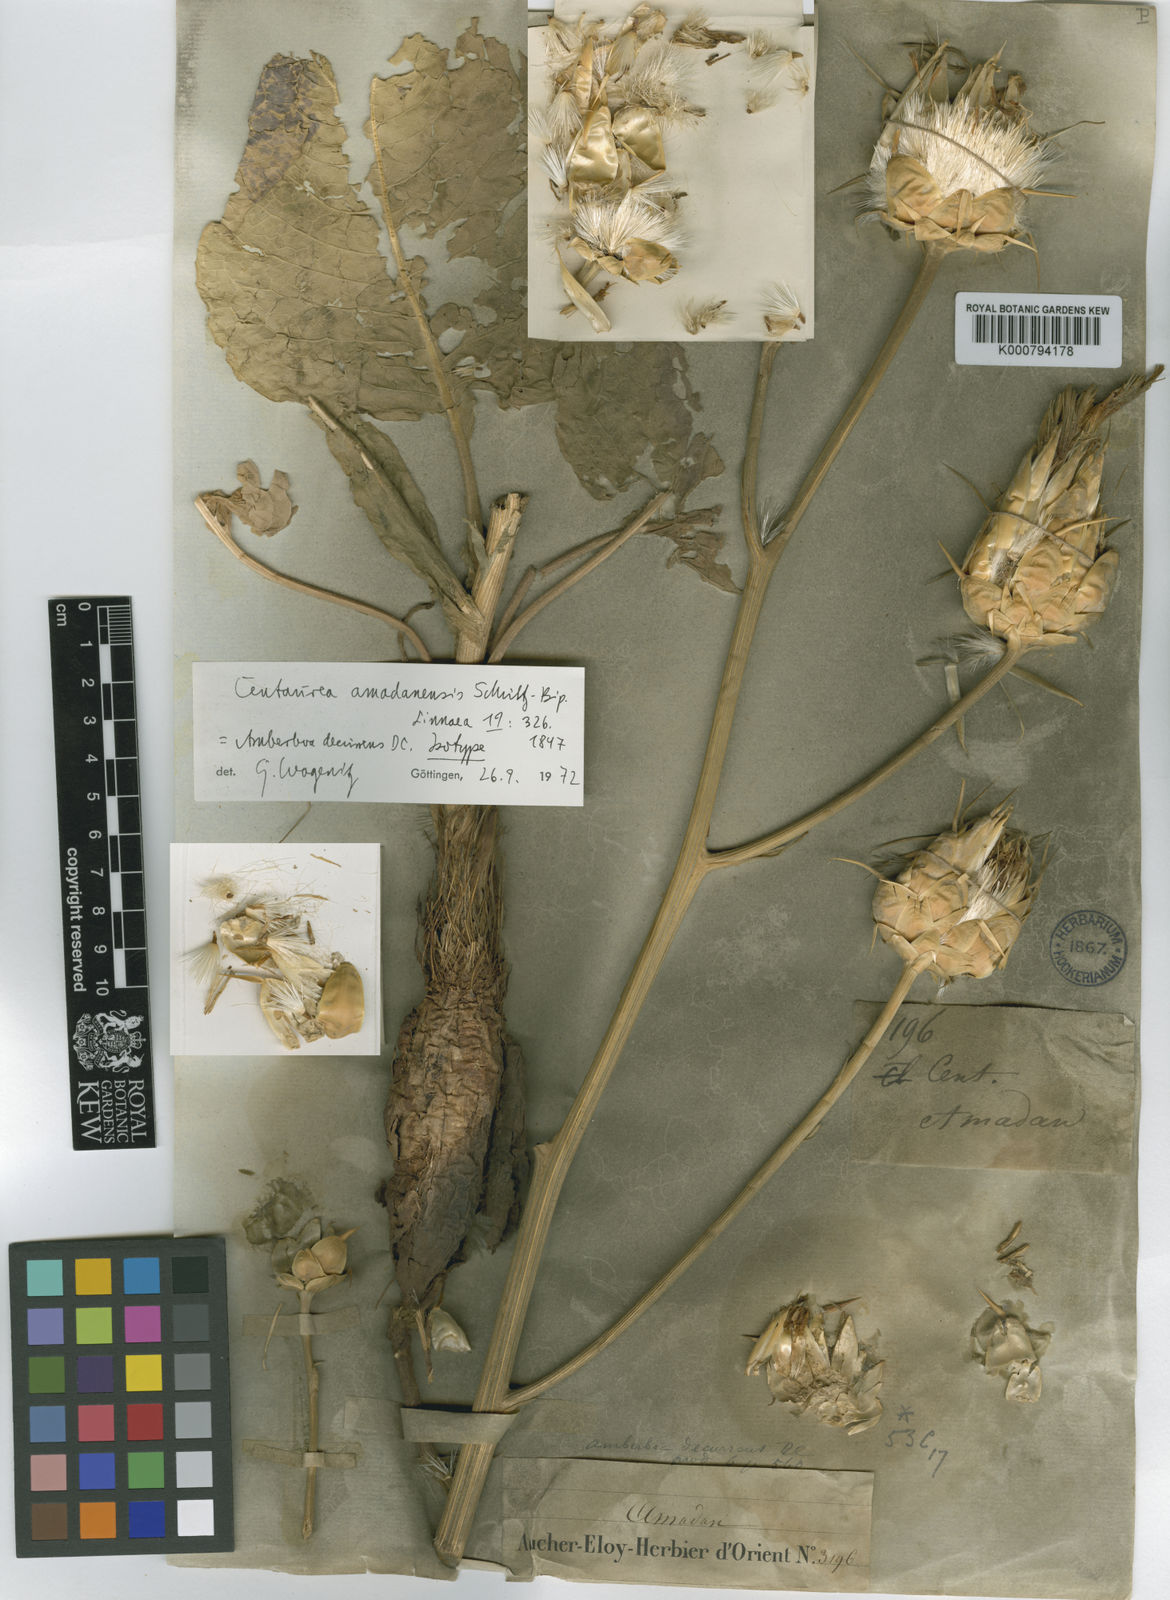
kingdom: Plantae
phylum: Tracheophyta
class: Magnoliopsida
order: Asterales
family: Asteraceae
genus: Centaurea
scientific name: Centaurea amadanensis
